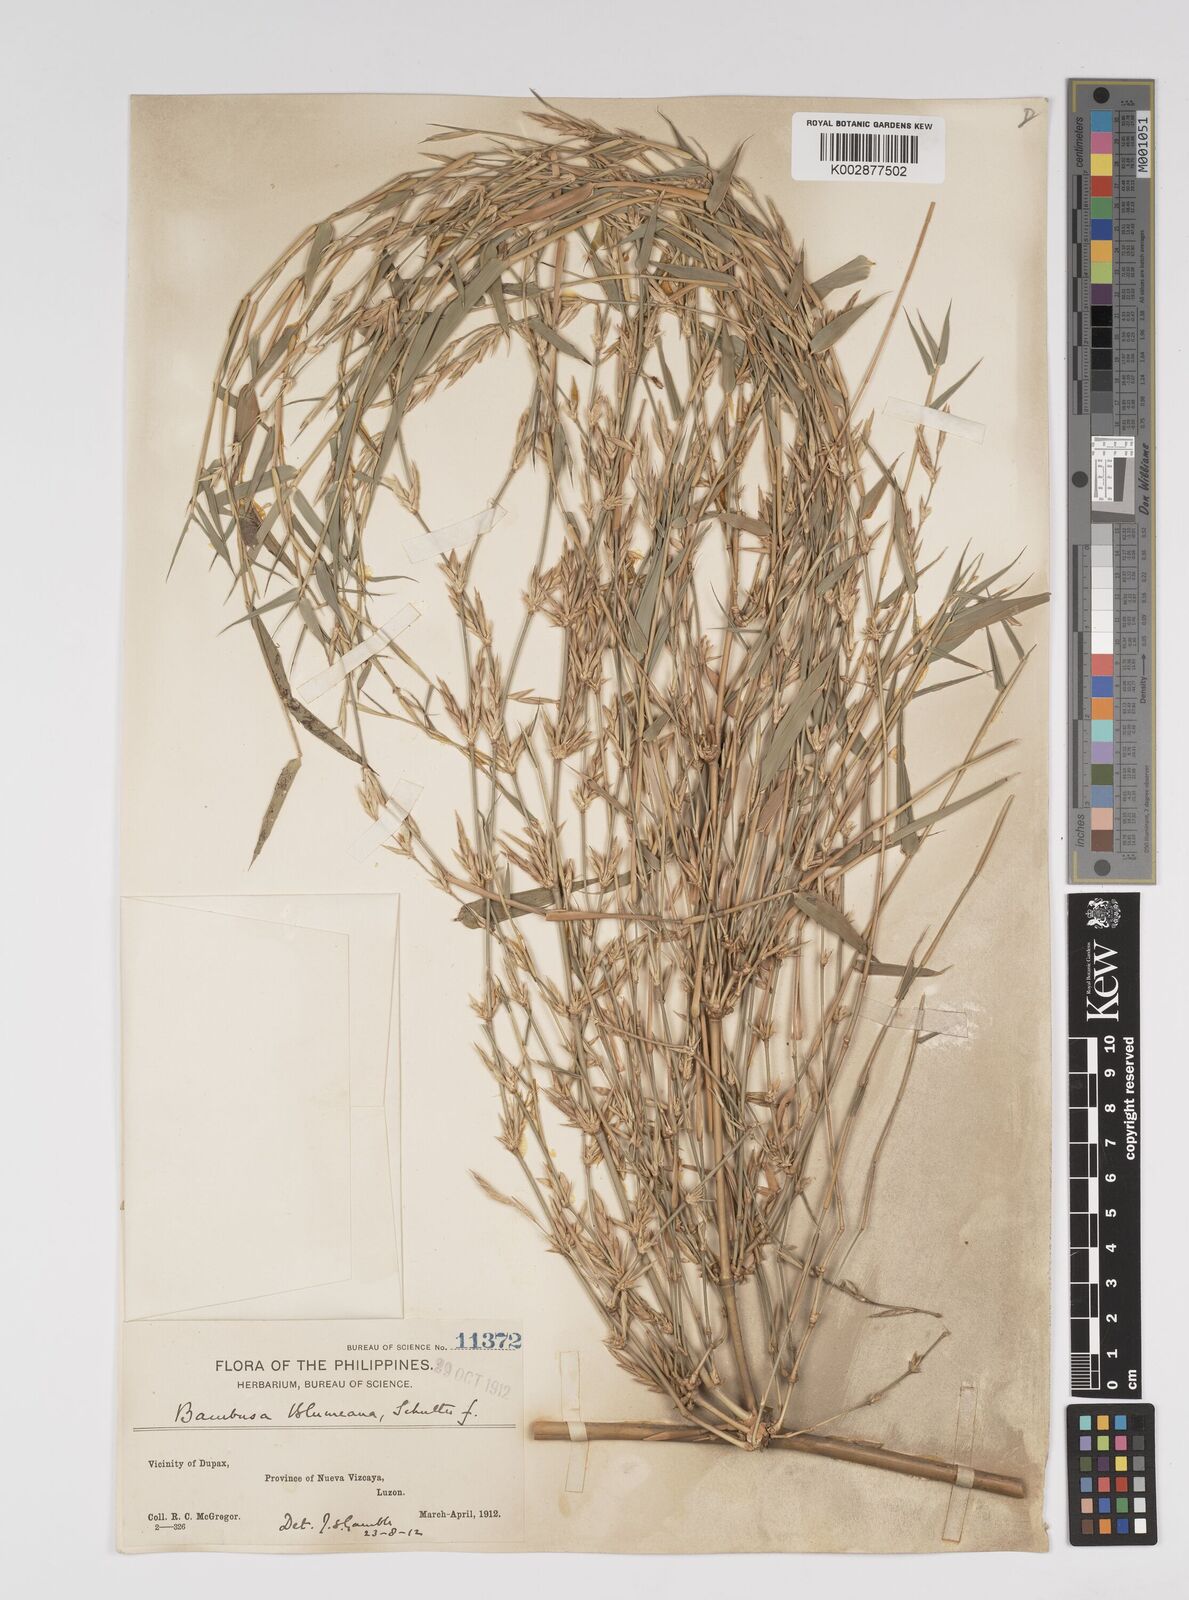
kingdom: Plantae
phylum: Tracheophyta
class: Liliopsida
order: Poales
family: Poaceae
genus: Bambusa
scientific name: Bambusa spinosa
